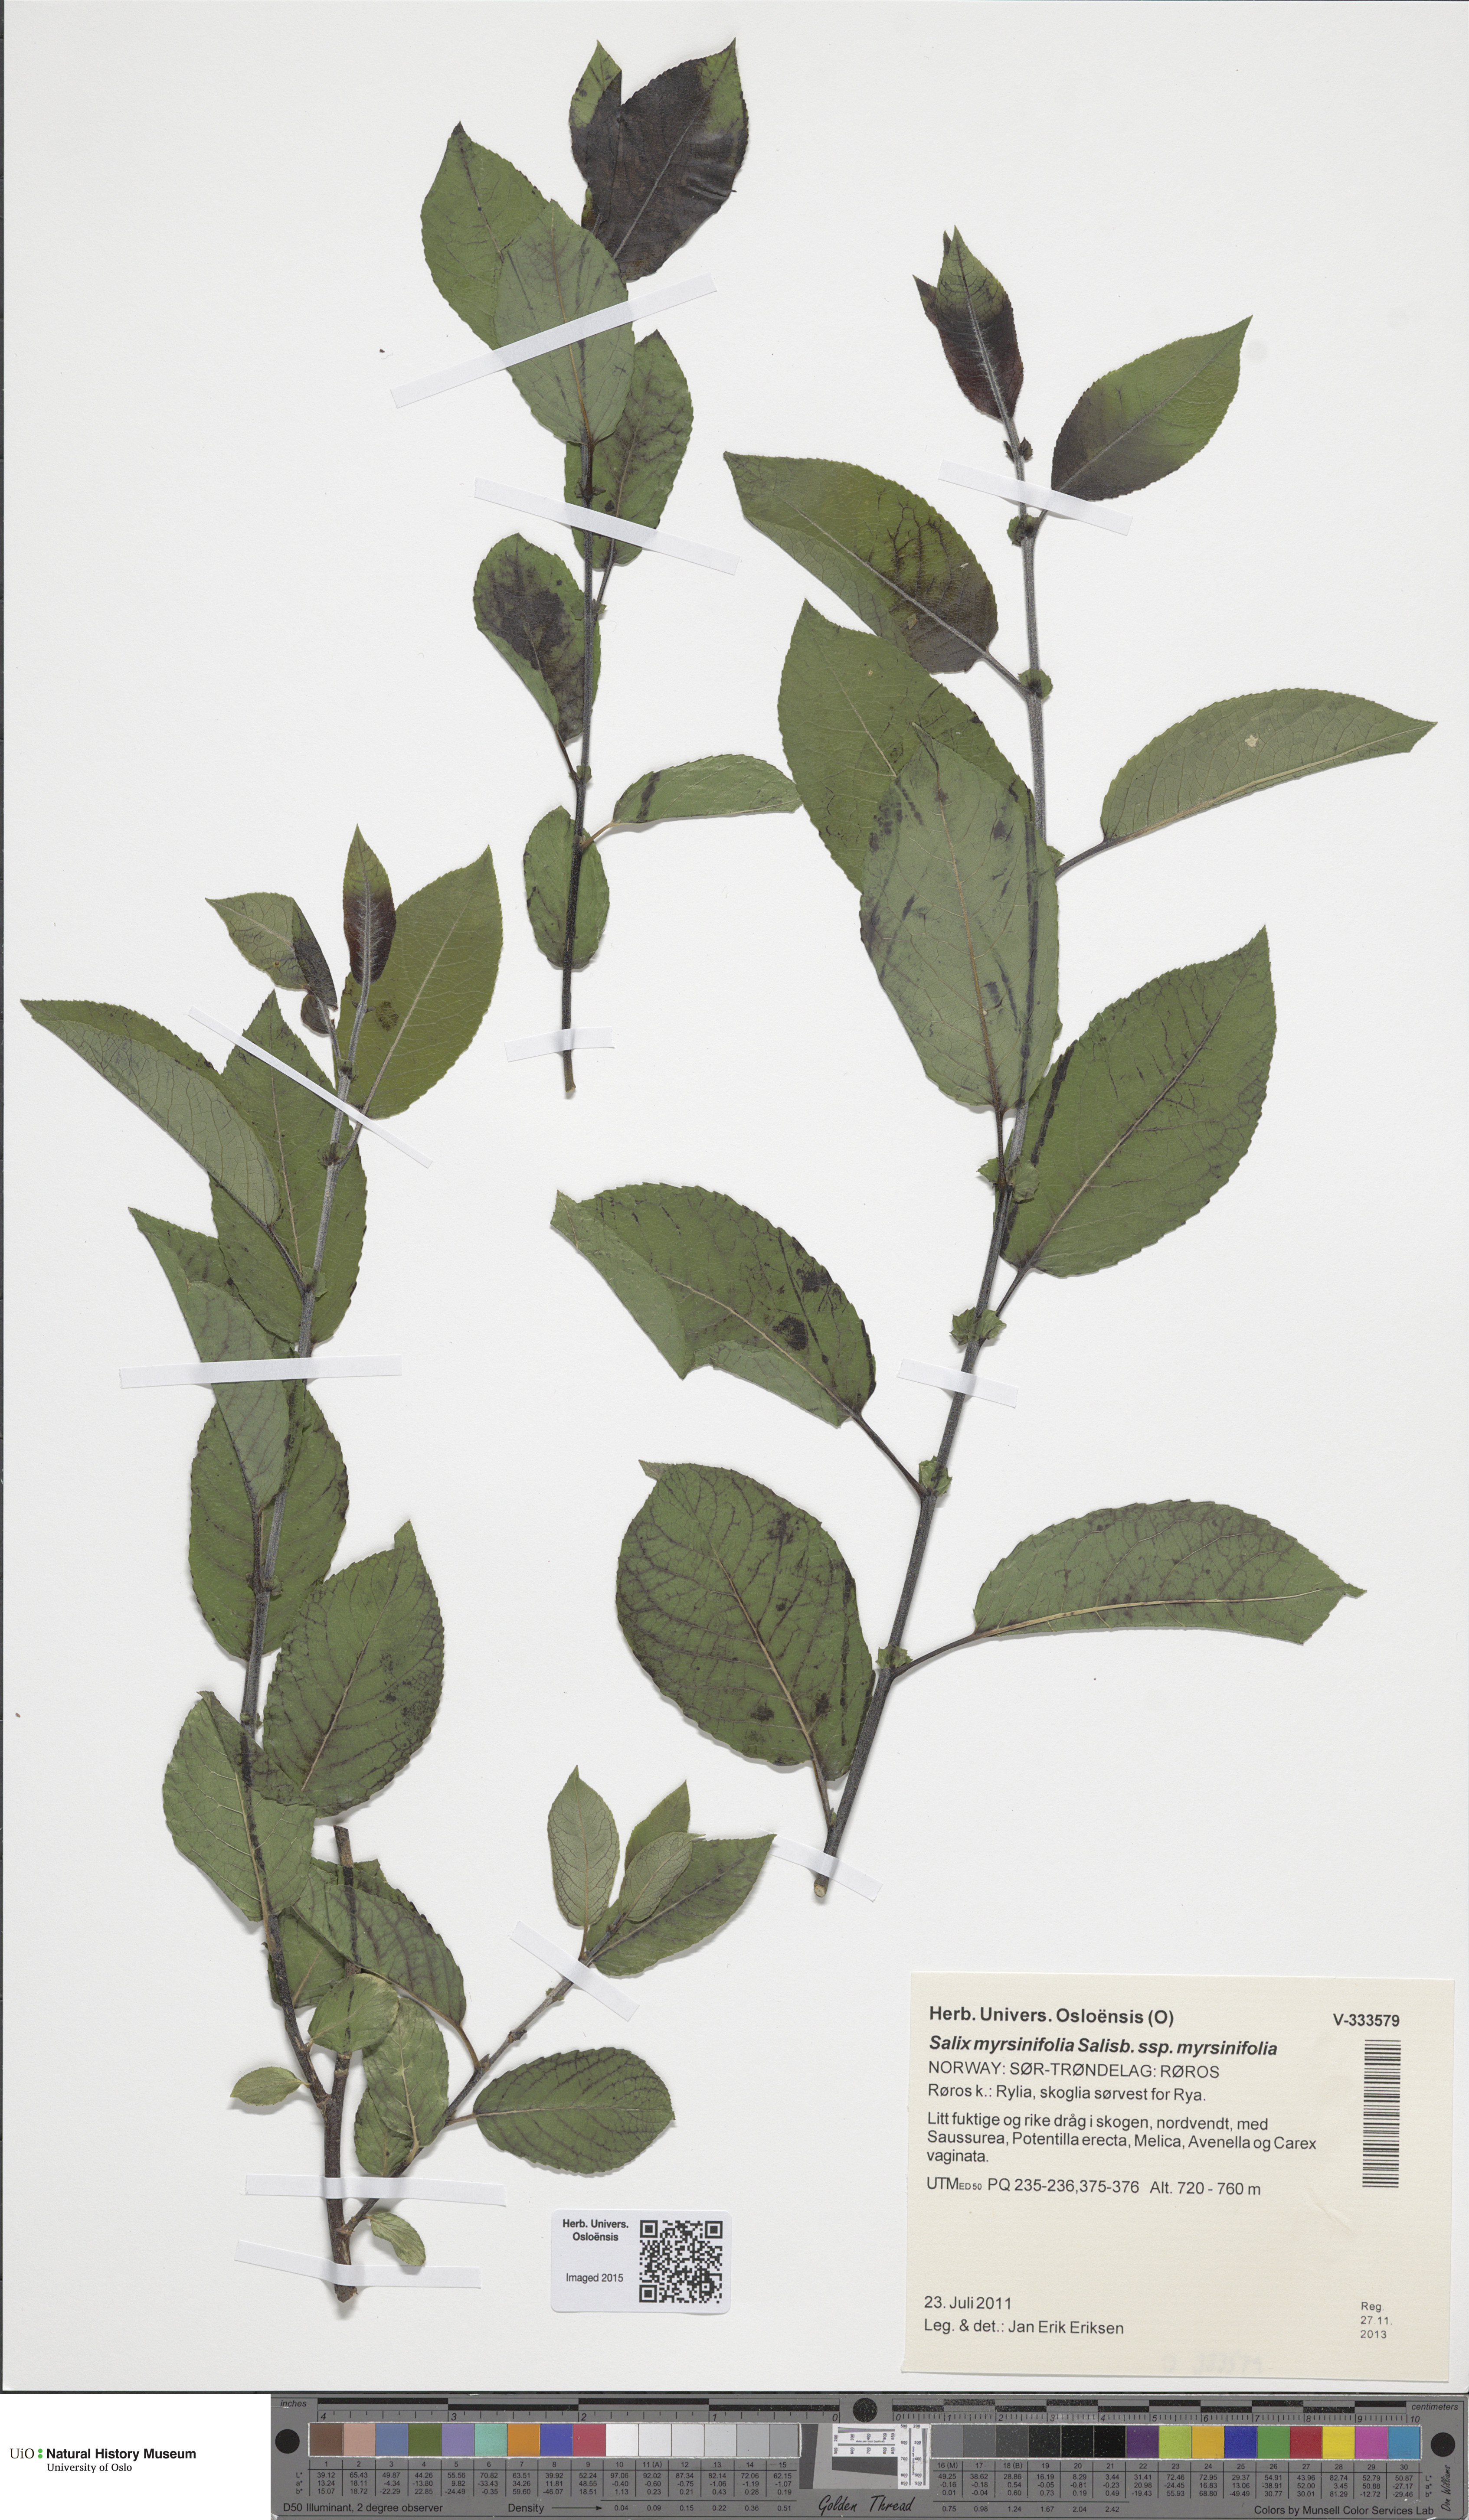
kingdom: Plantae
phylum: Tracheophyta
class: Magnoliopsida
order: Malpighiales
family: Salicaceae
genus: Salix
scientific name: Salix myrsinifolia
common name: Dark-leaved willow
